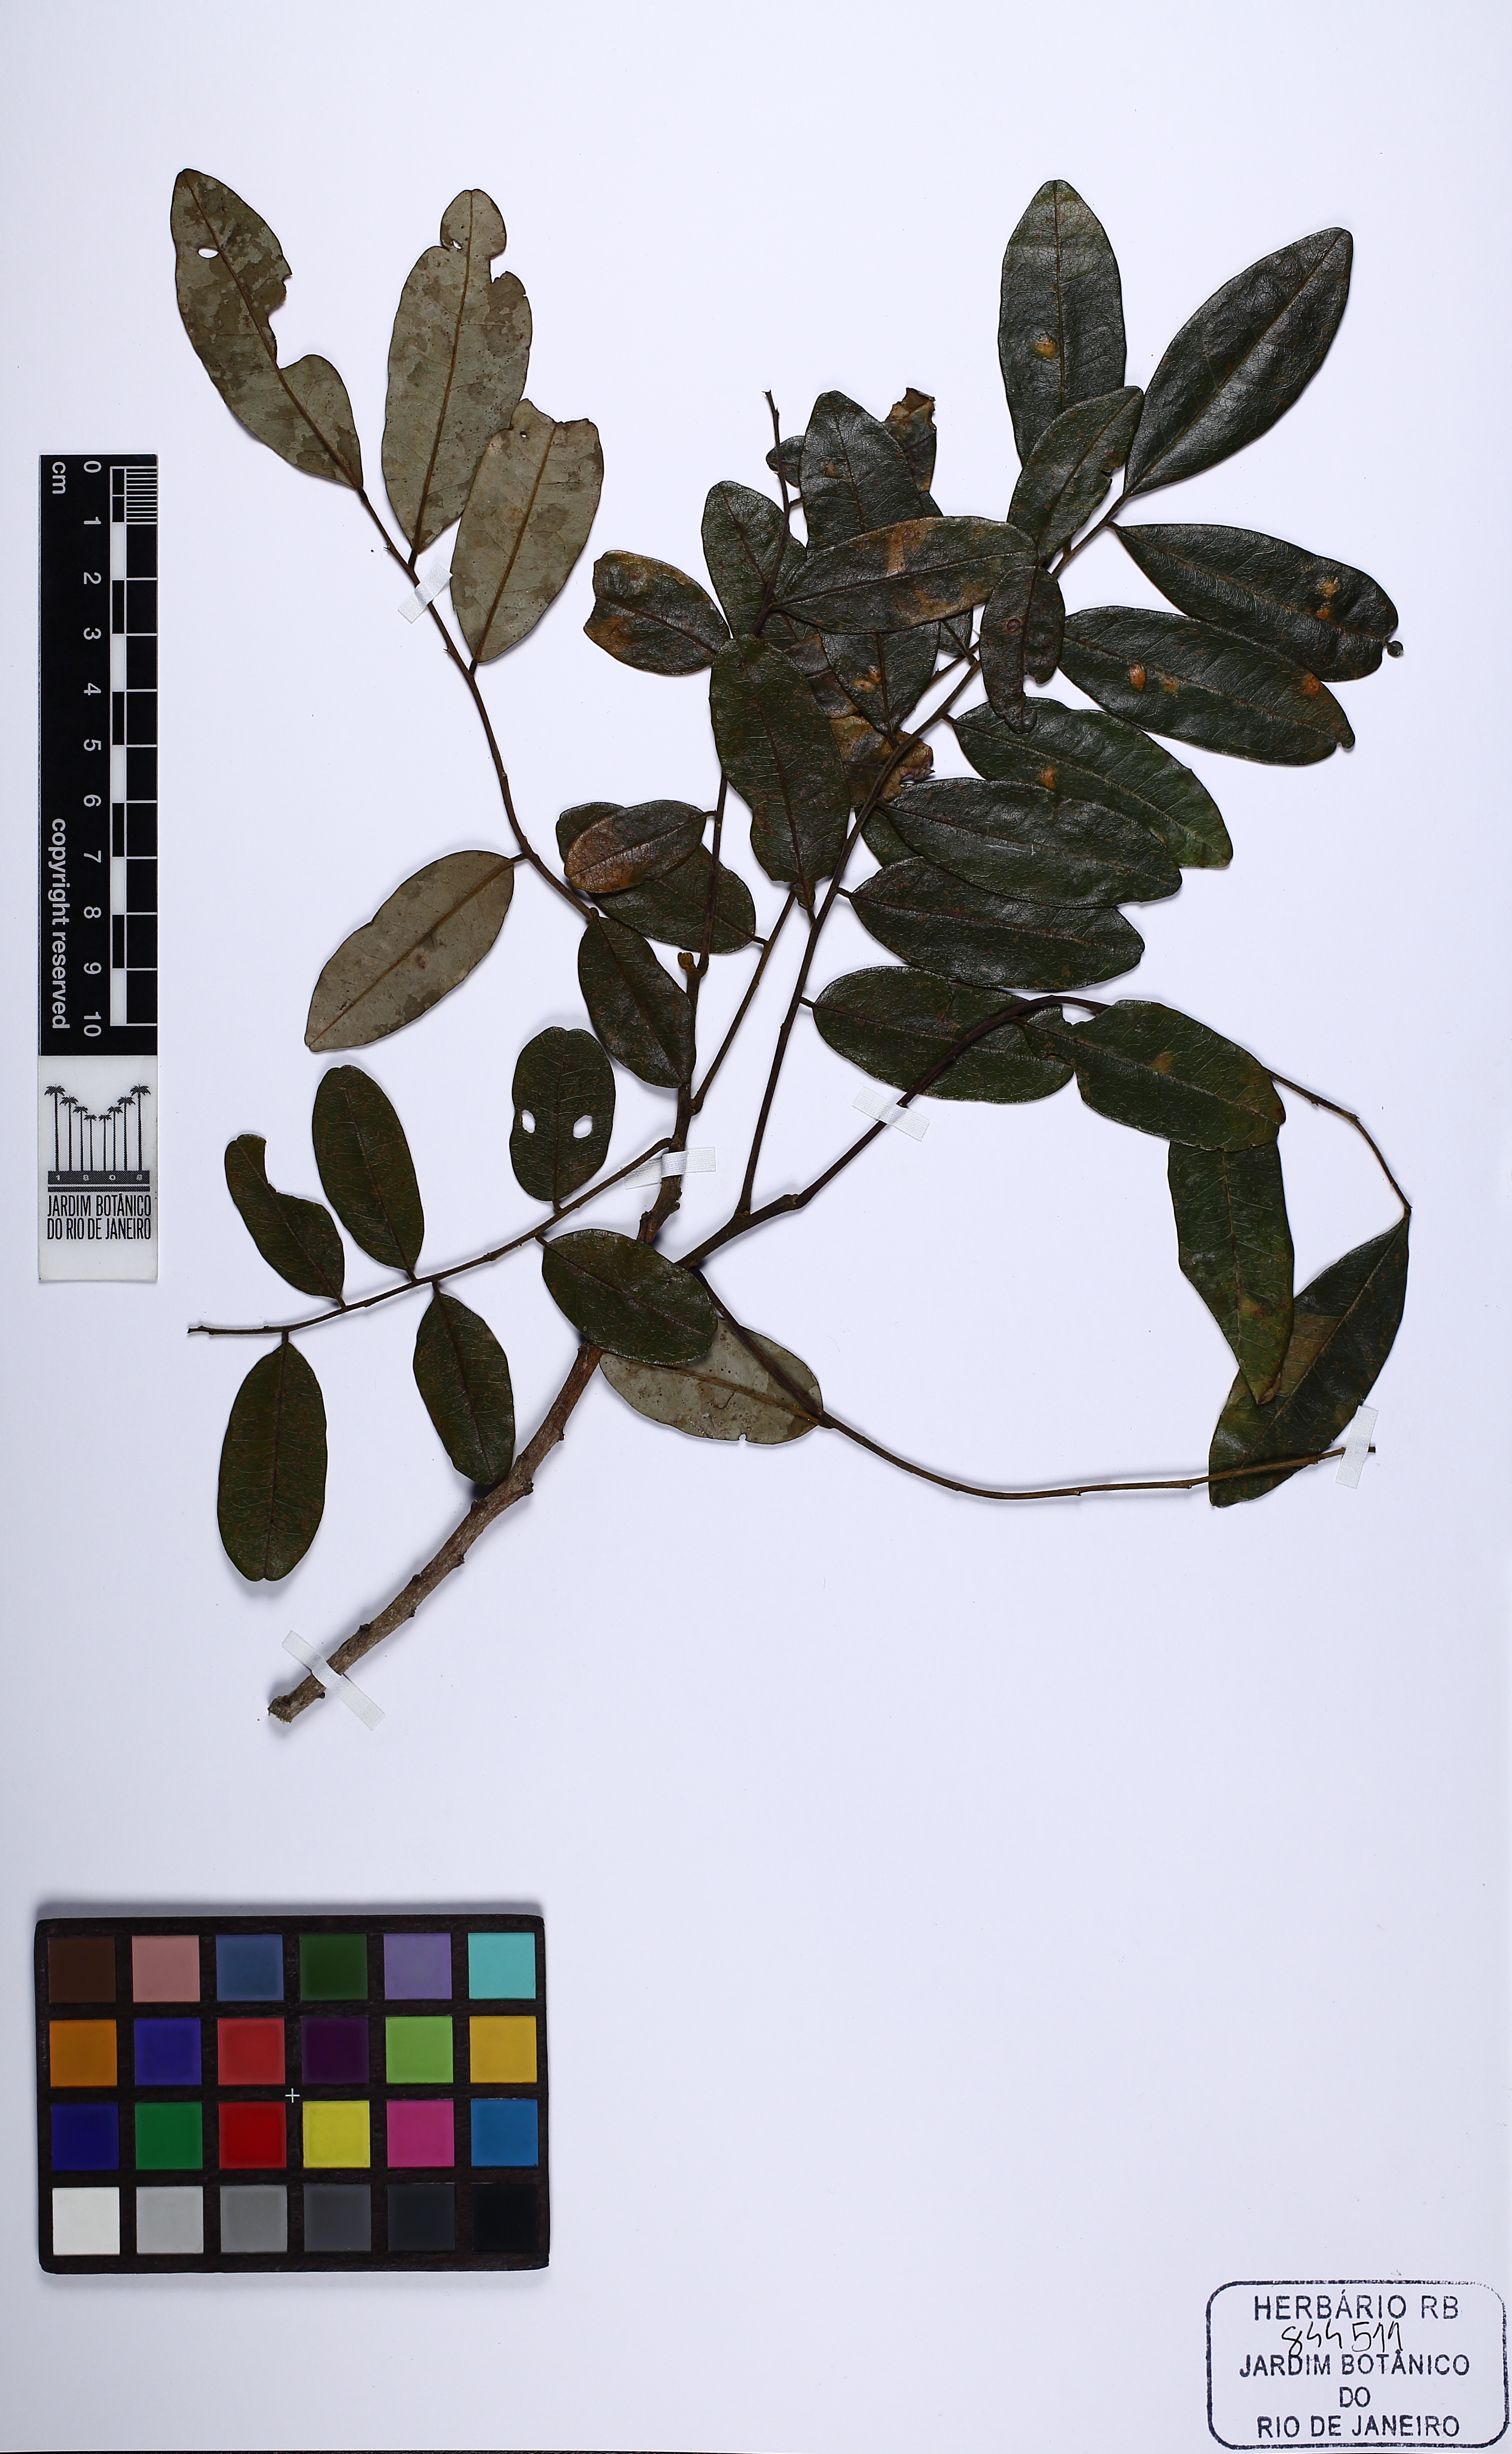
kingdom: Plantae
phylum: Tracheophyta
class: Magnoliopsida
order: Fabales
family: Fabaceae
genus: Bowdichia
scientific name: Bowdichia virgilioides
